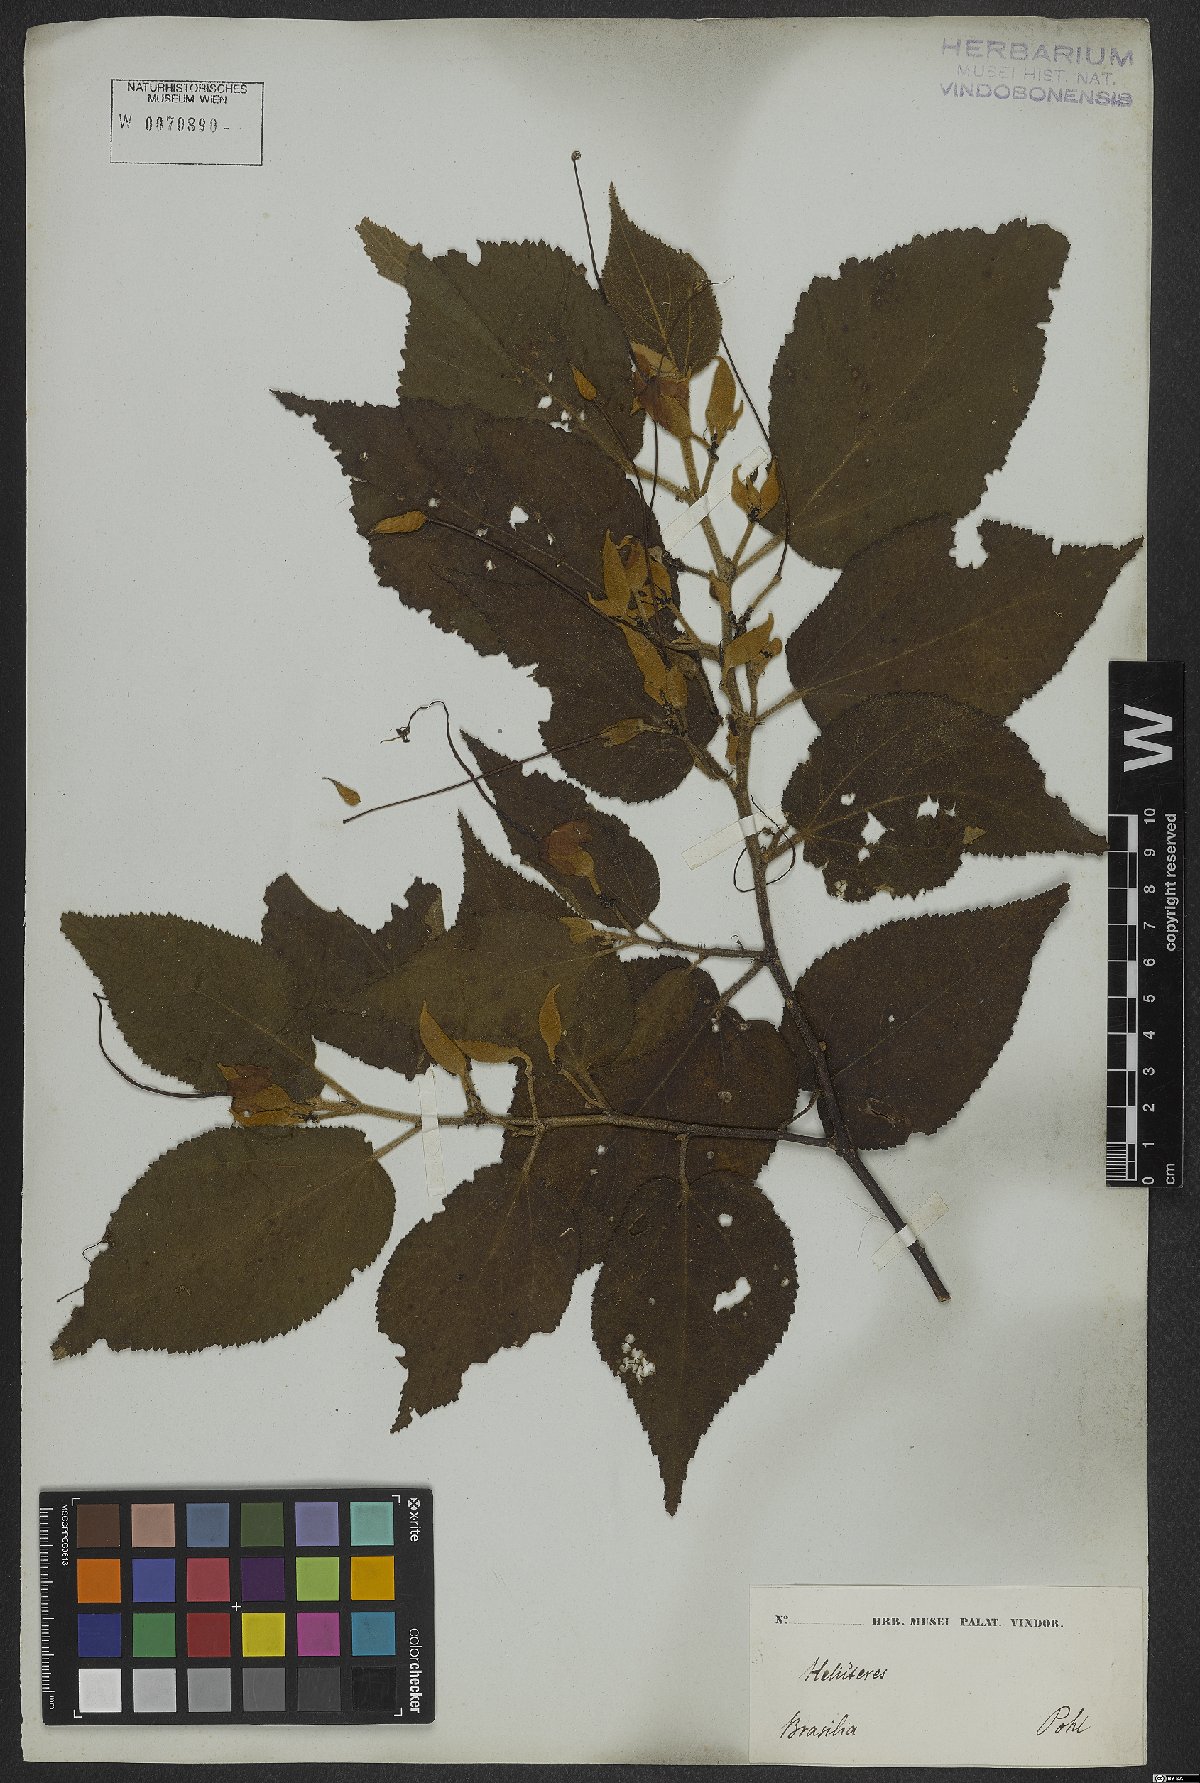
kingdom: Plantae
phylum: Tracheophyta
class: Magnoliopsida
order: Malvales
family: Malvaceae
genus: Helicteres
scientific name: Helicteres ovata
